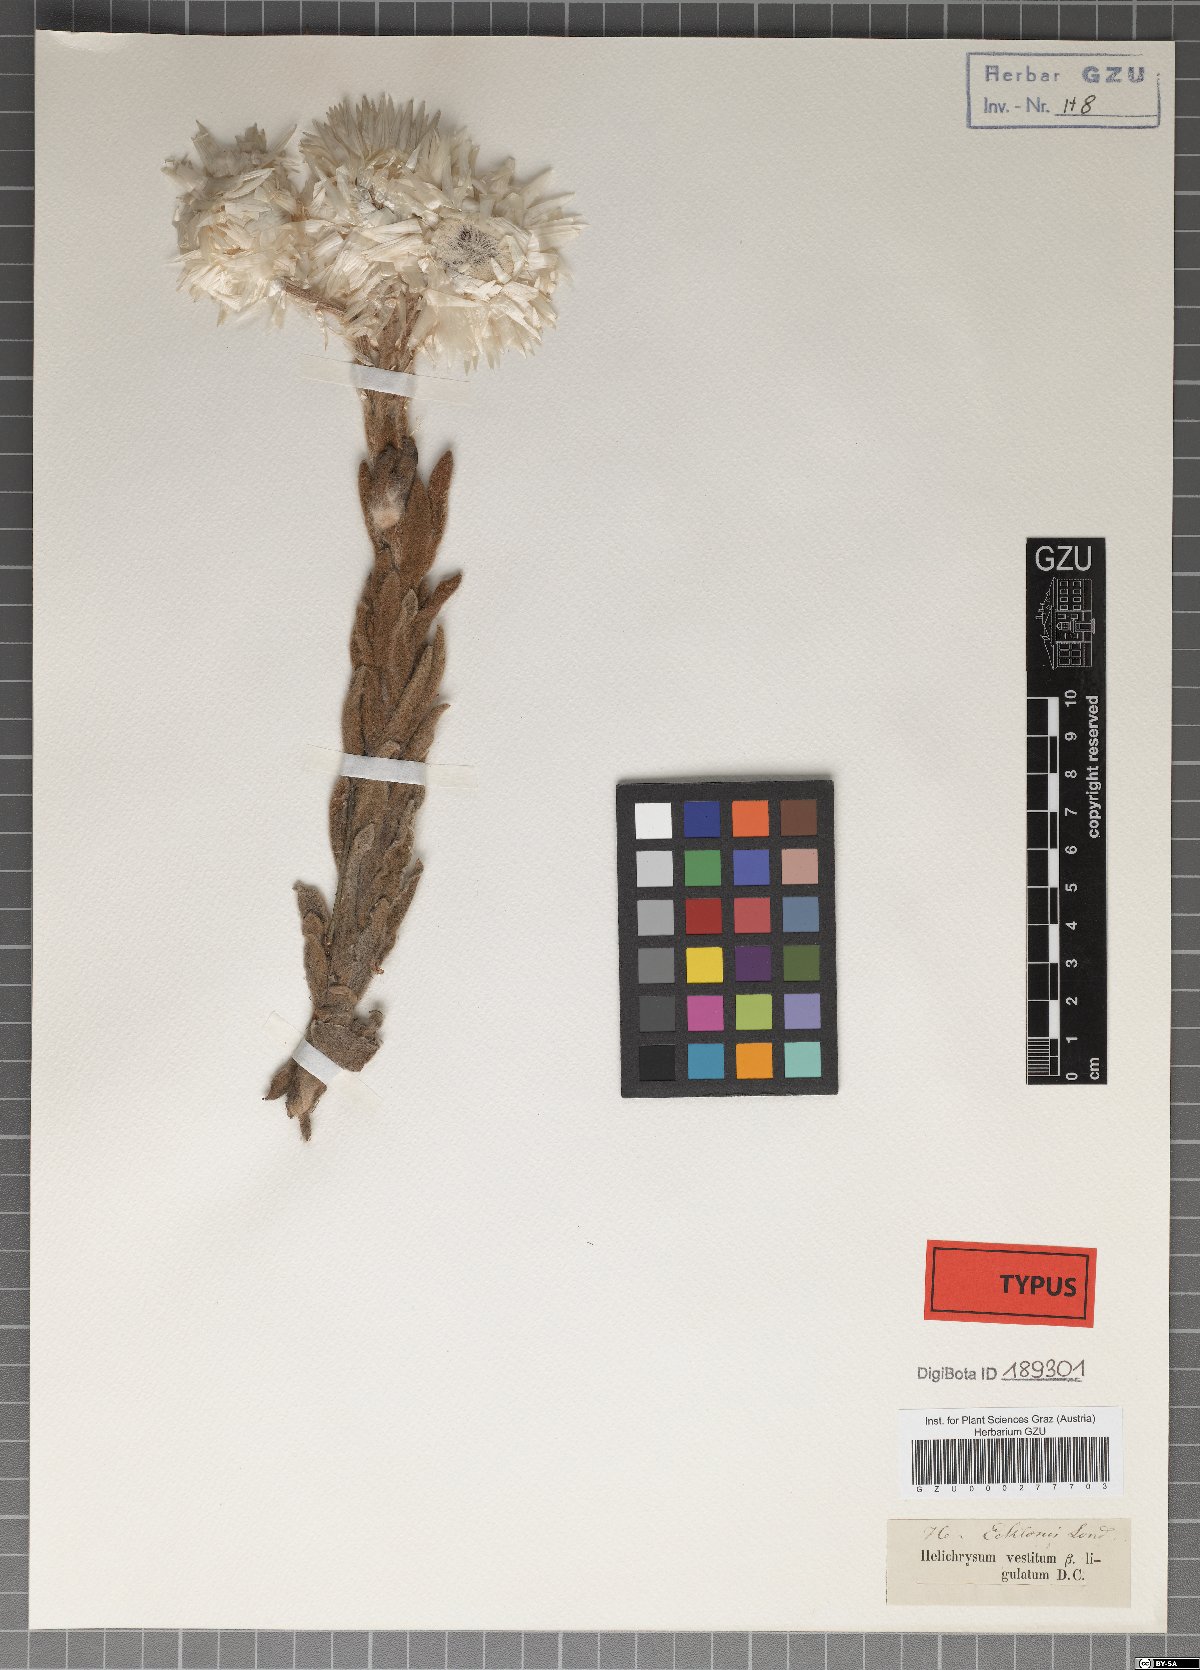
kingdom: Plantae
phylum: Tracheophyta
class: Magnoliopsida
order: Asterales
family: Asteraceae
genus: Helichrysum
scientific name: Helichrysum ecklonis
